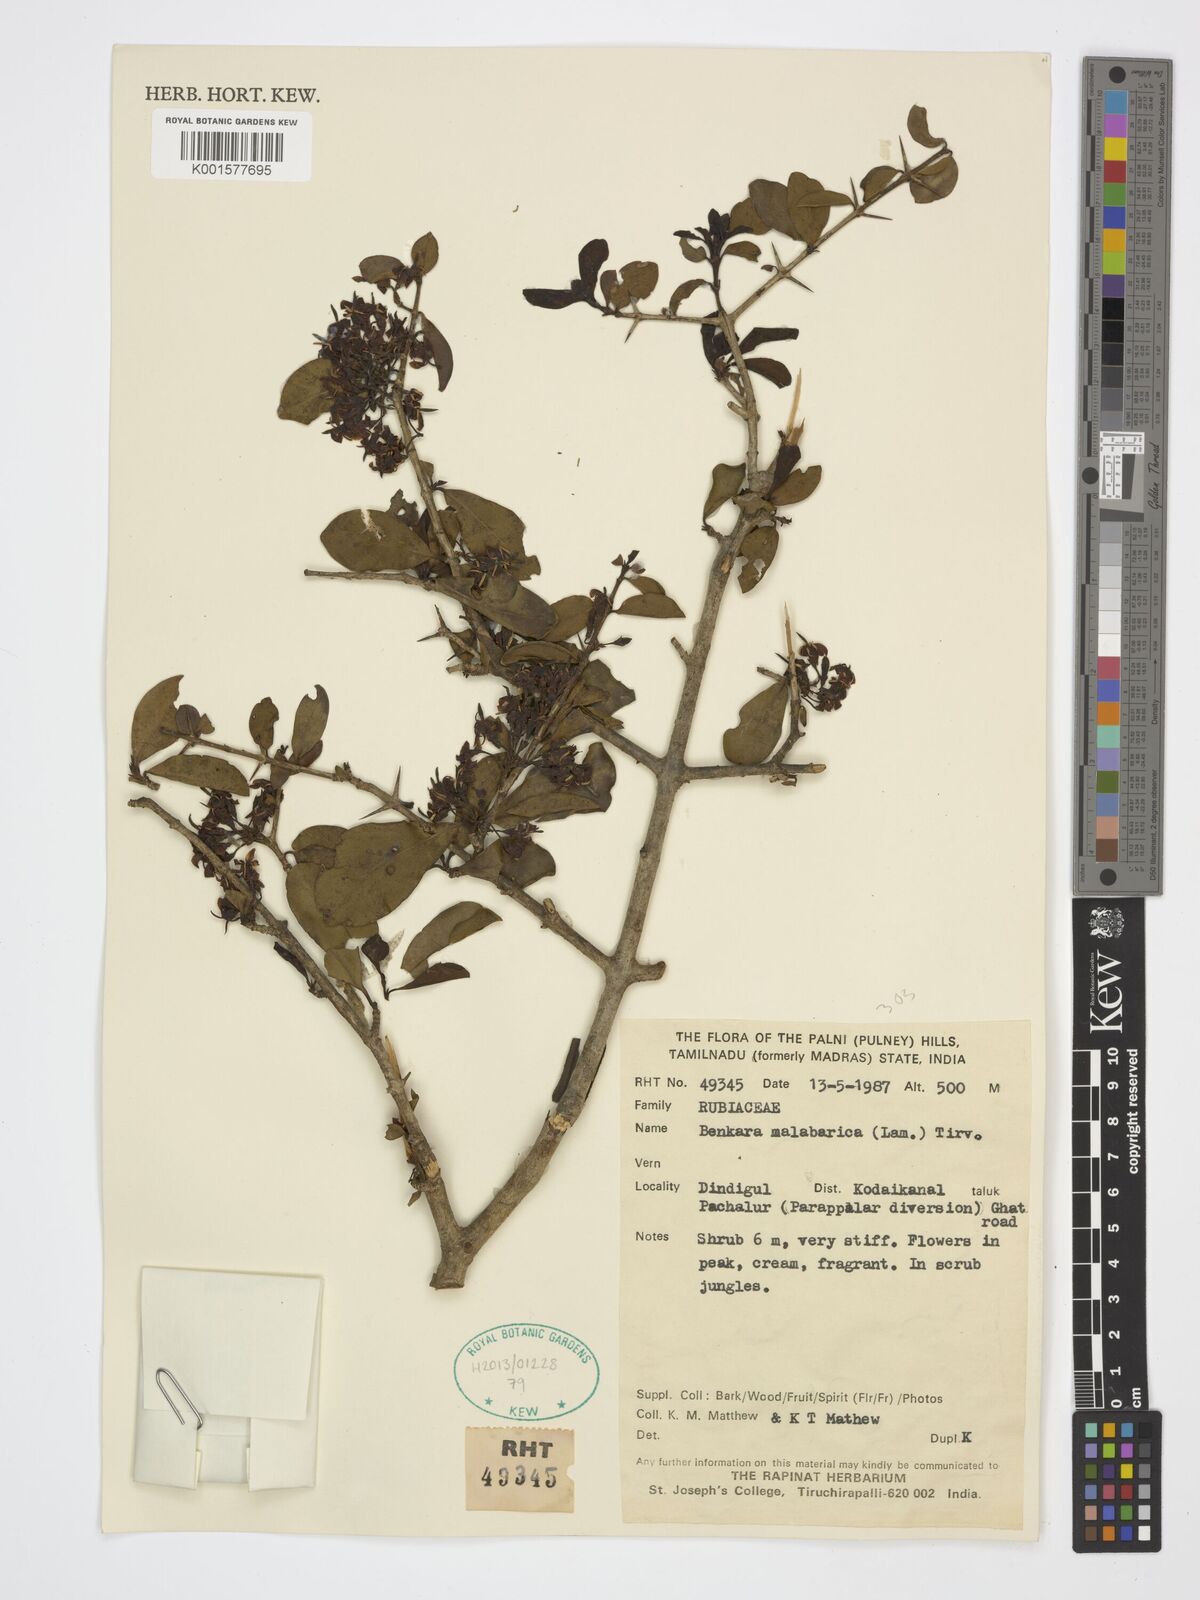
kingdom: Plantae
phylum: Tracheophyta
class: Magnoliopsida
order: Gentianales
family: Rubiaceae
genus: Benkara
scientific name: Benkara malabarica
